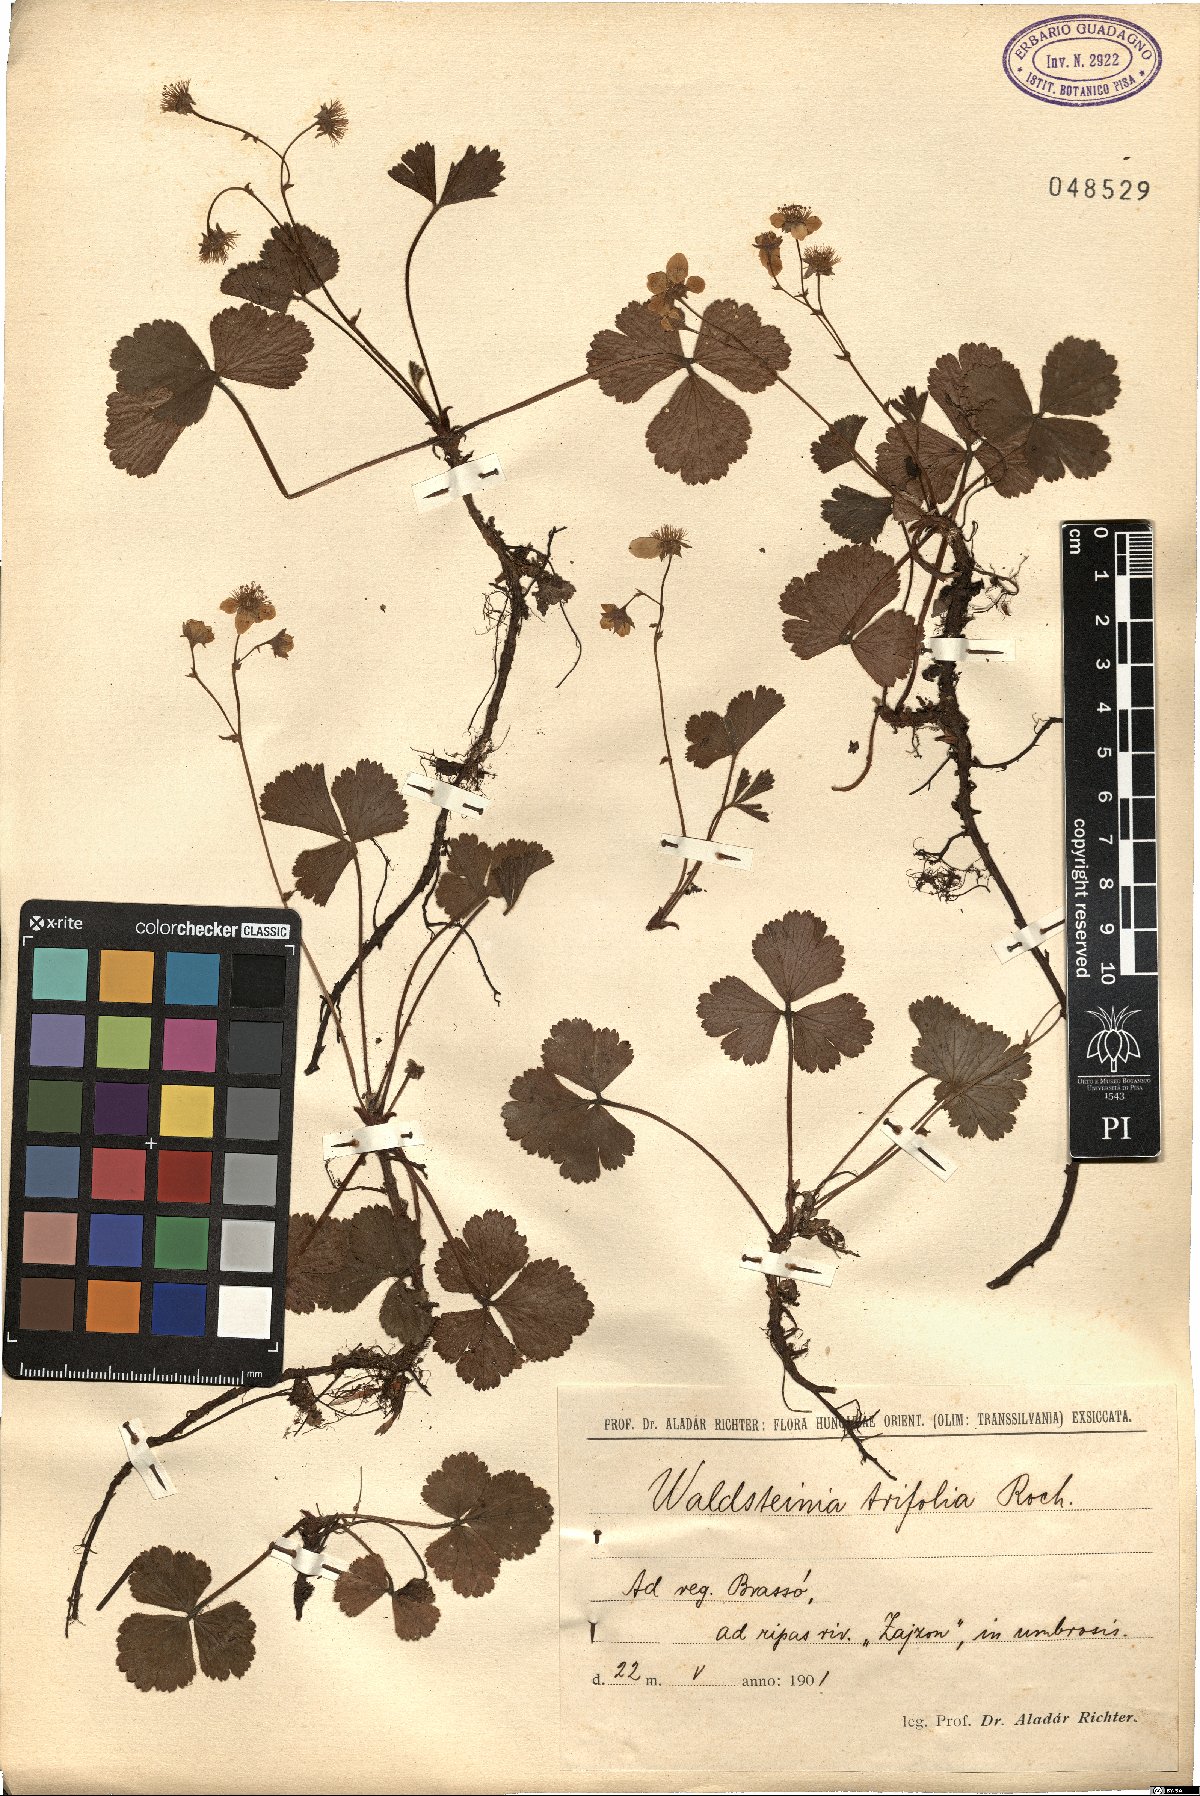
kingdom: Plantae
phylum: Tracheophyta
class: Magnoliopsida
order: Rosales
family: Rosaceae
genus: Geum
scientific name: Geum ternatum
